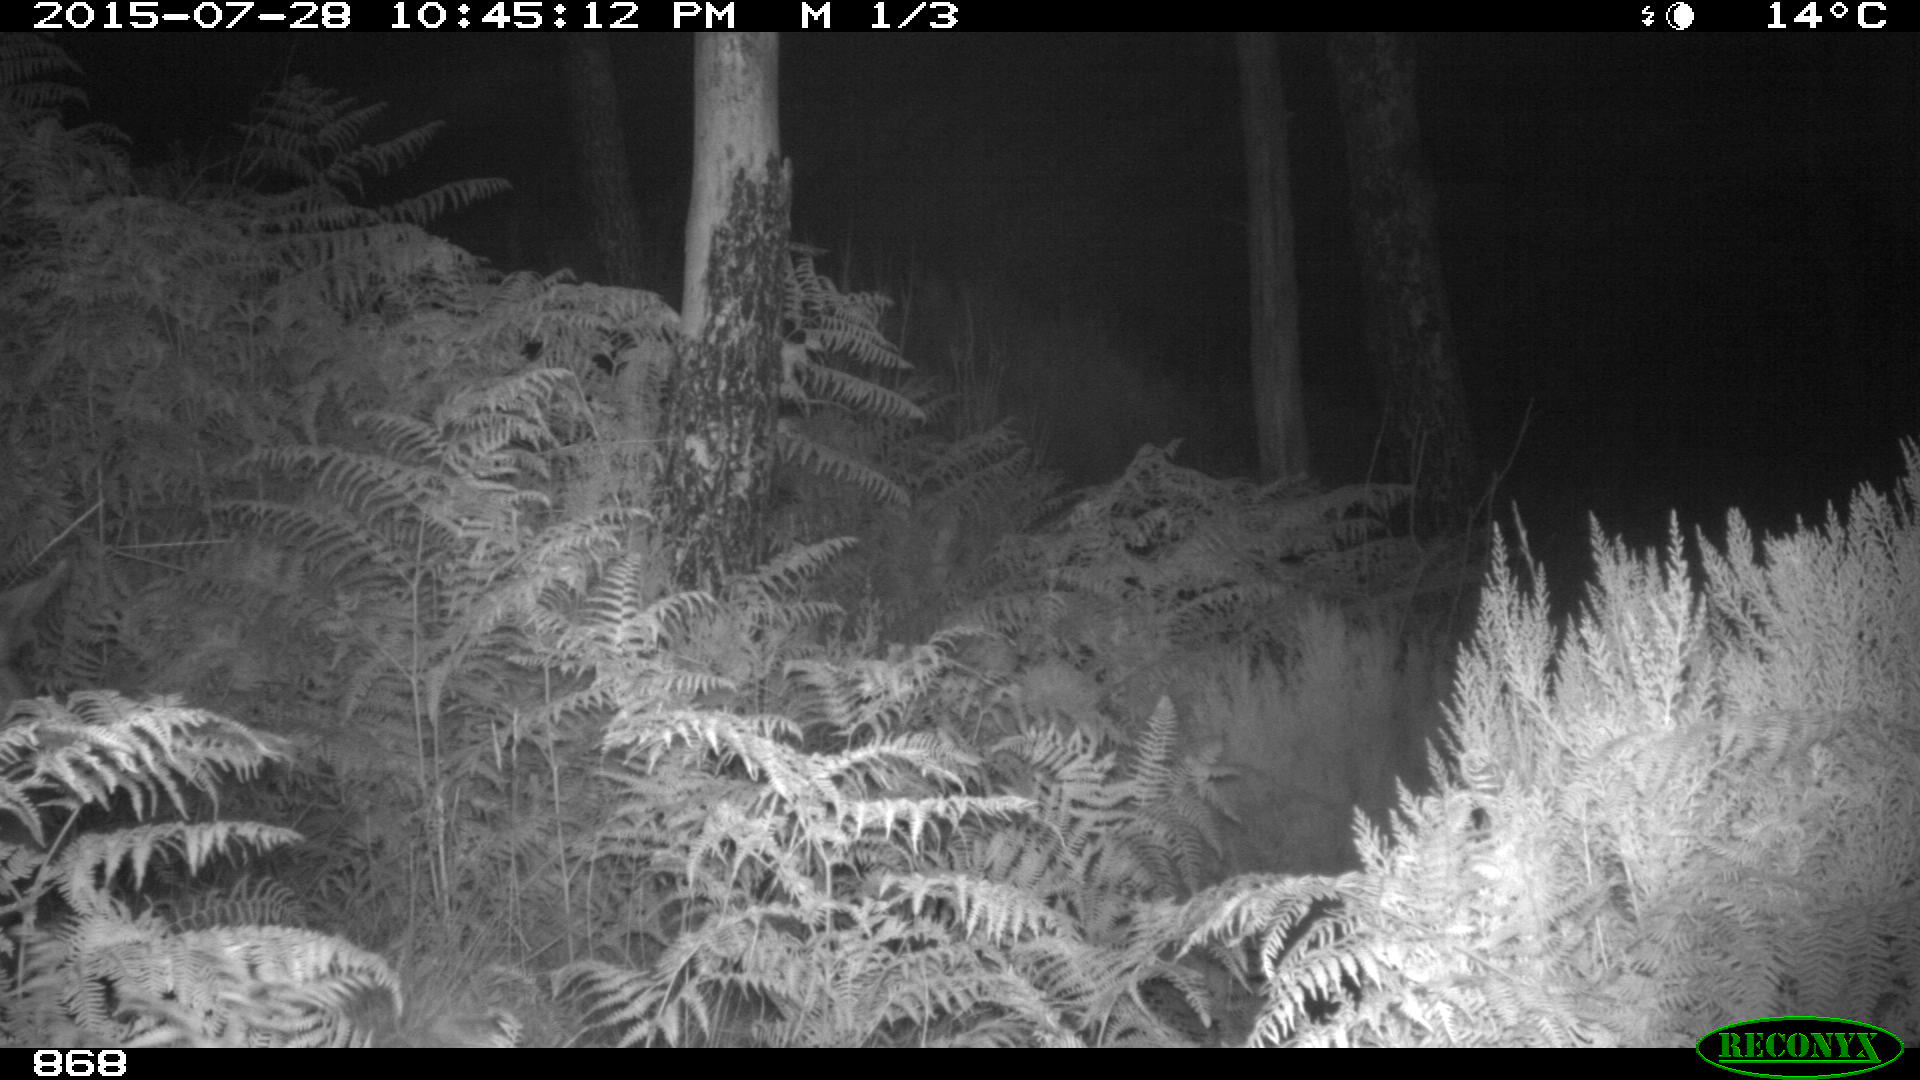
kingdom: Animalia
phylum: Chordata
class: Mammalia
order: Perissodactyla
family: Equidae
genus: Equus
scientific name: Equus caballus
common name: Horse
